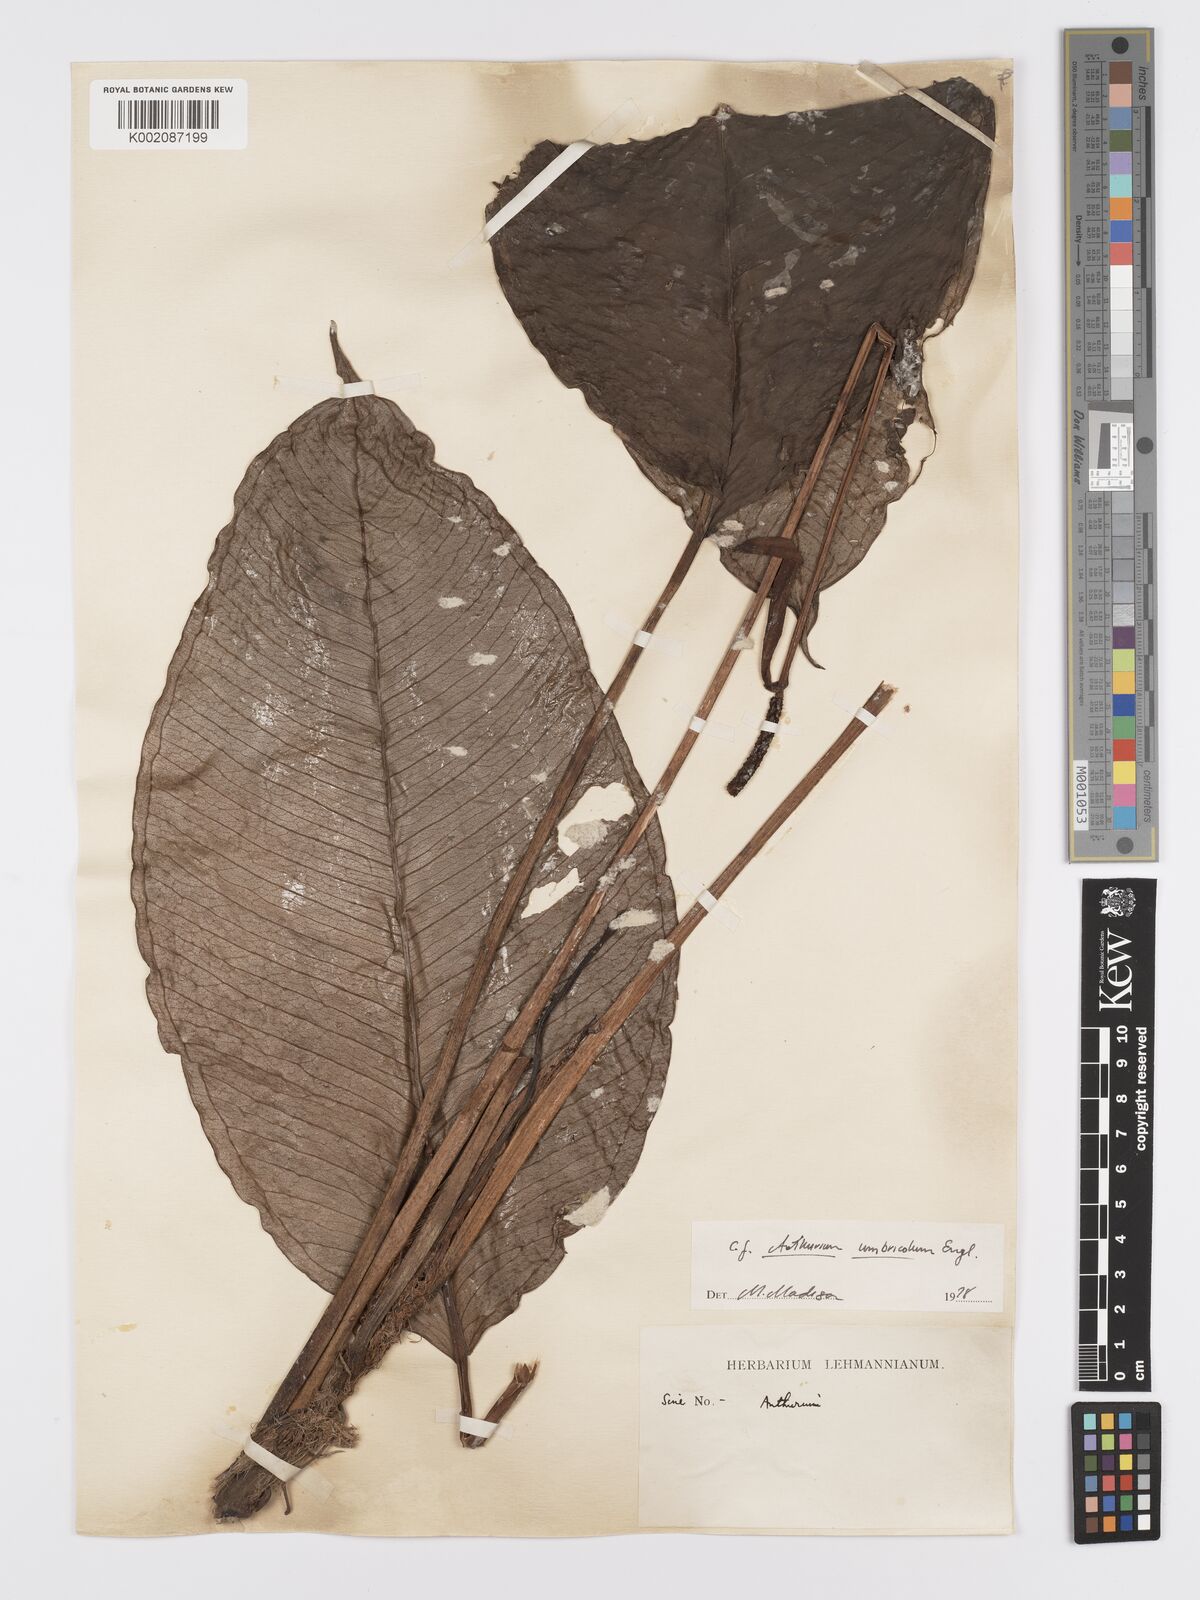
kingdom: Plantae
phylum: Tracheophyta
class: Liliopsida
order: Alismatales
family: Araceae
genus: Anthurium
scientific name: Anthurium umbricola
